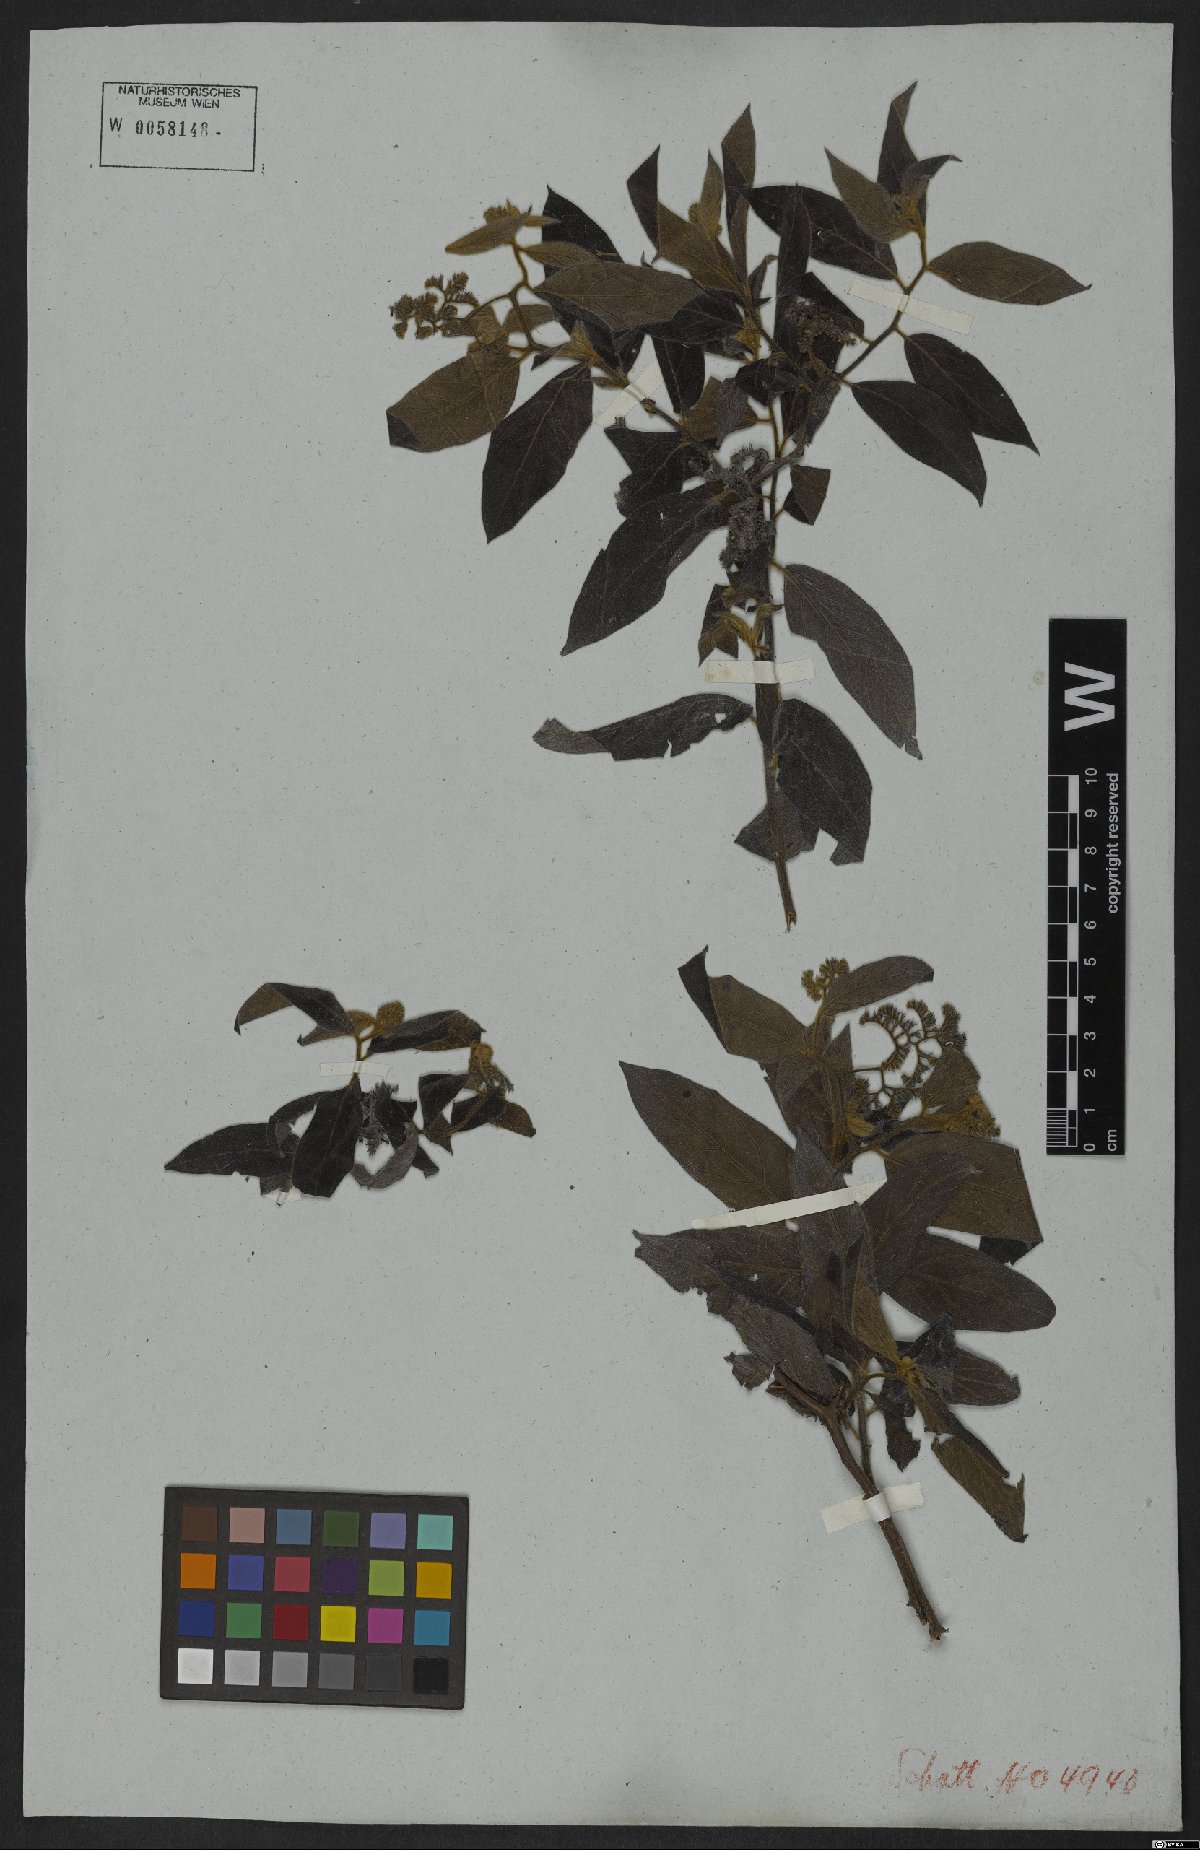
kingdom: Plantae
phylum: Tracheophyta
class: Magnoliopsida
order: Boraginales
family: Heliotropiaceae
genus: Myriopus
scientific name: Myriopus salicifolius
